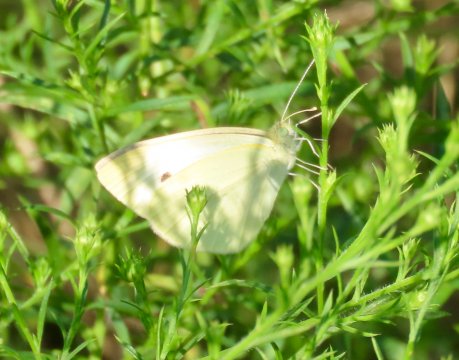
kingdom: Animalia
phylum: Arthropoda
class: Insecta
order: Lepidoptera
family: Pieridae
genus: Pieris
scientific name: Pieris rapae
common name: Cabbage White
